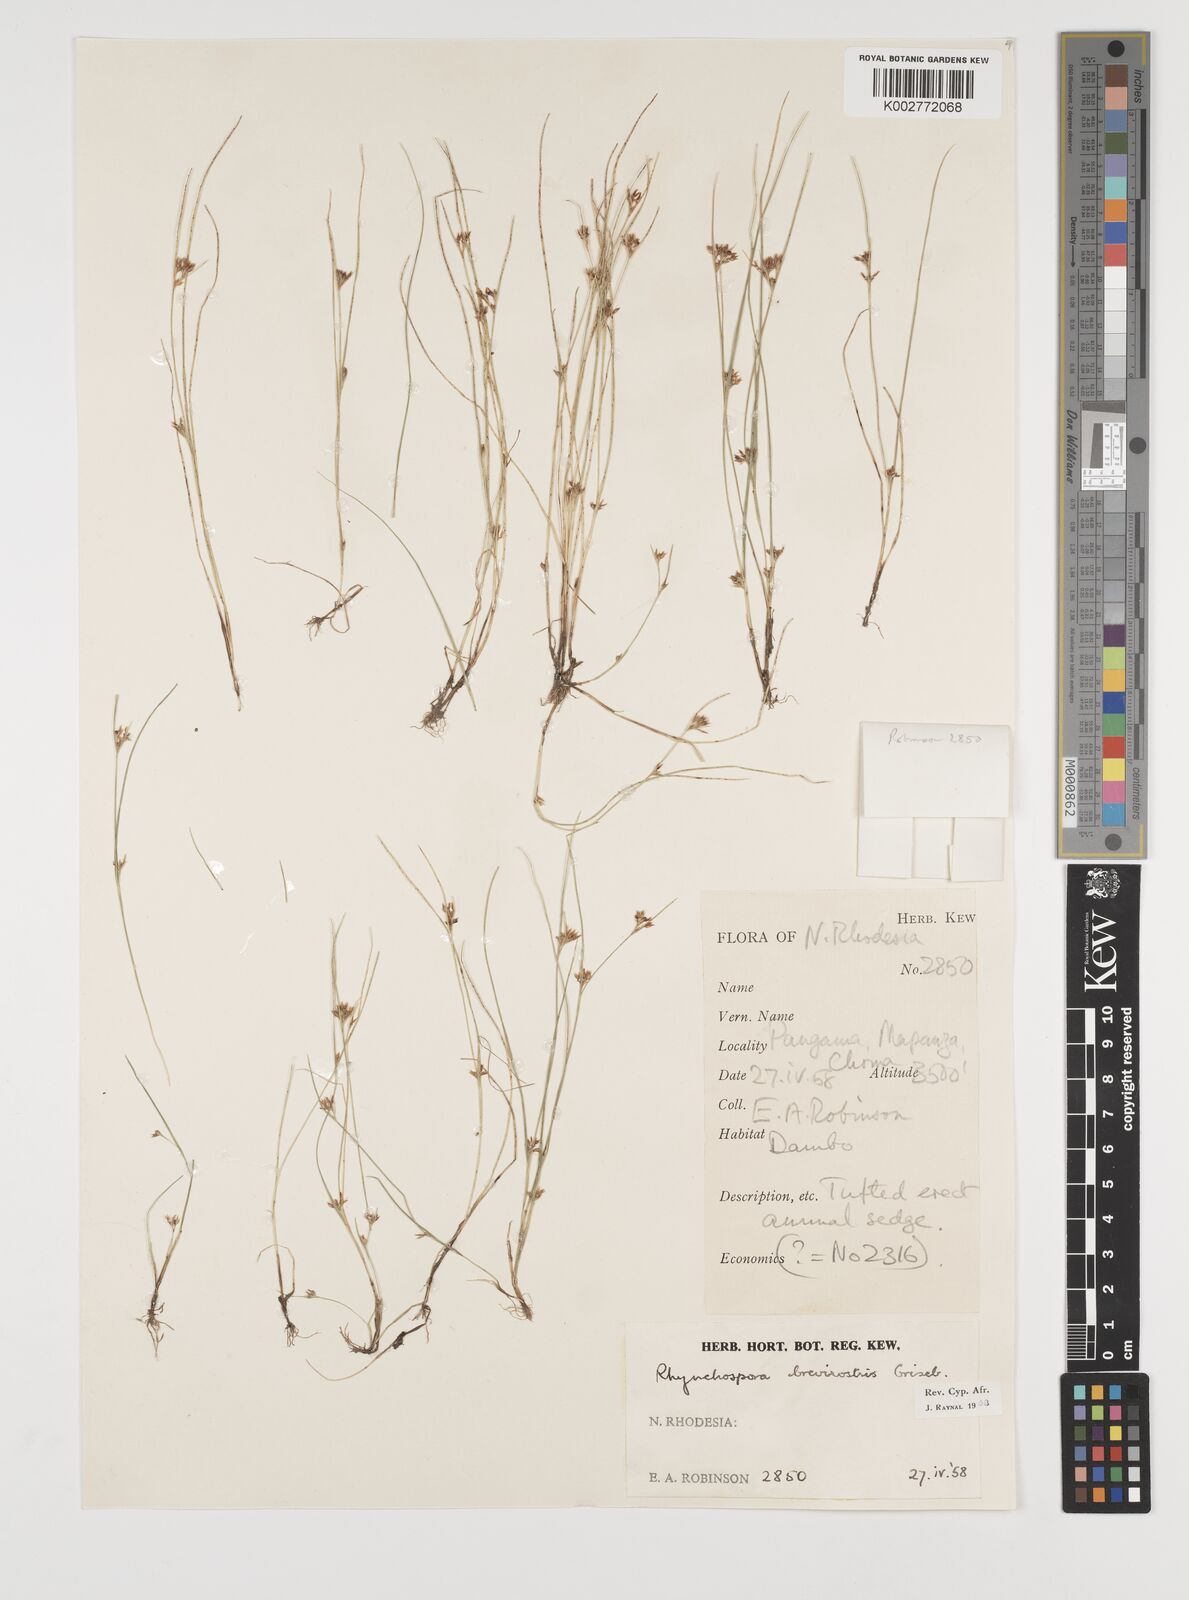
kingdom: Plantae
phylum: Tracheophyta
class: Liliopsida
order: Poales
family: Cyperaceae
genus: Rhynchospora
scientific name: Rhynchospora brevirostris
